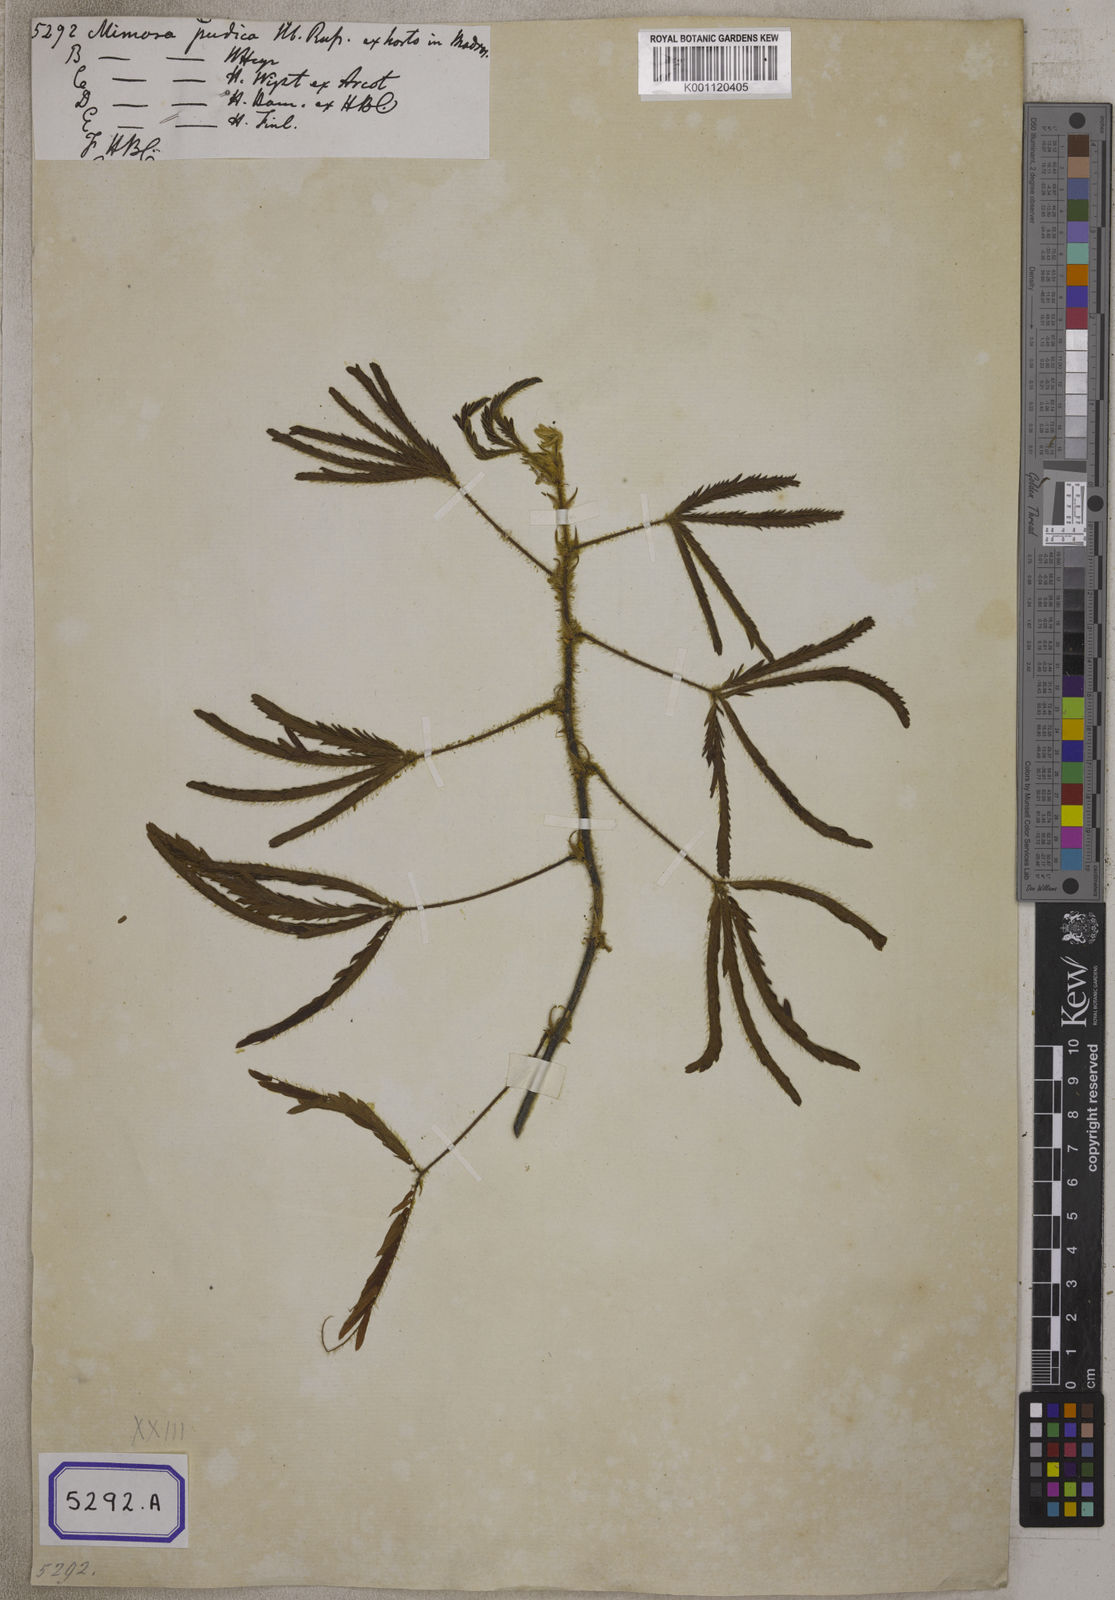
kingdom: Plantae
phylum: Tracheophyta
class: Magnoliopsida
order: Fabales
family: Fabaceae
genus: Mimosa
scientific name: Mimosa pudica
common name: Sensitive plant
